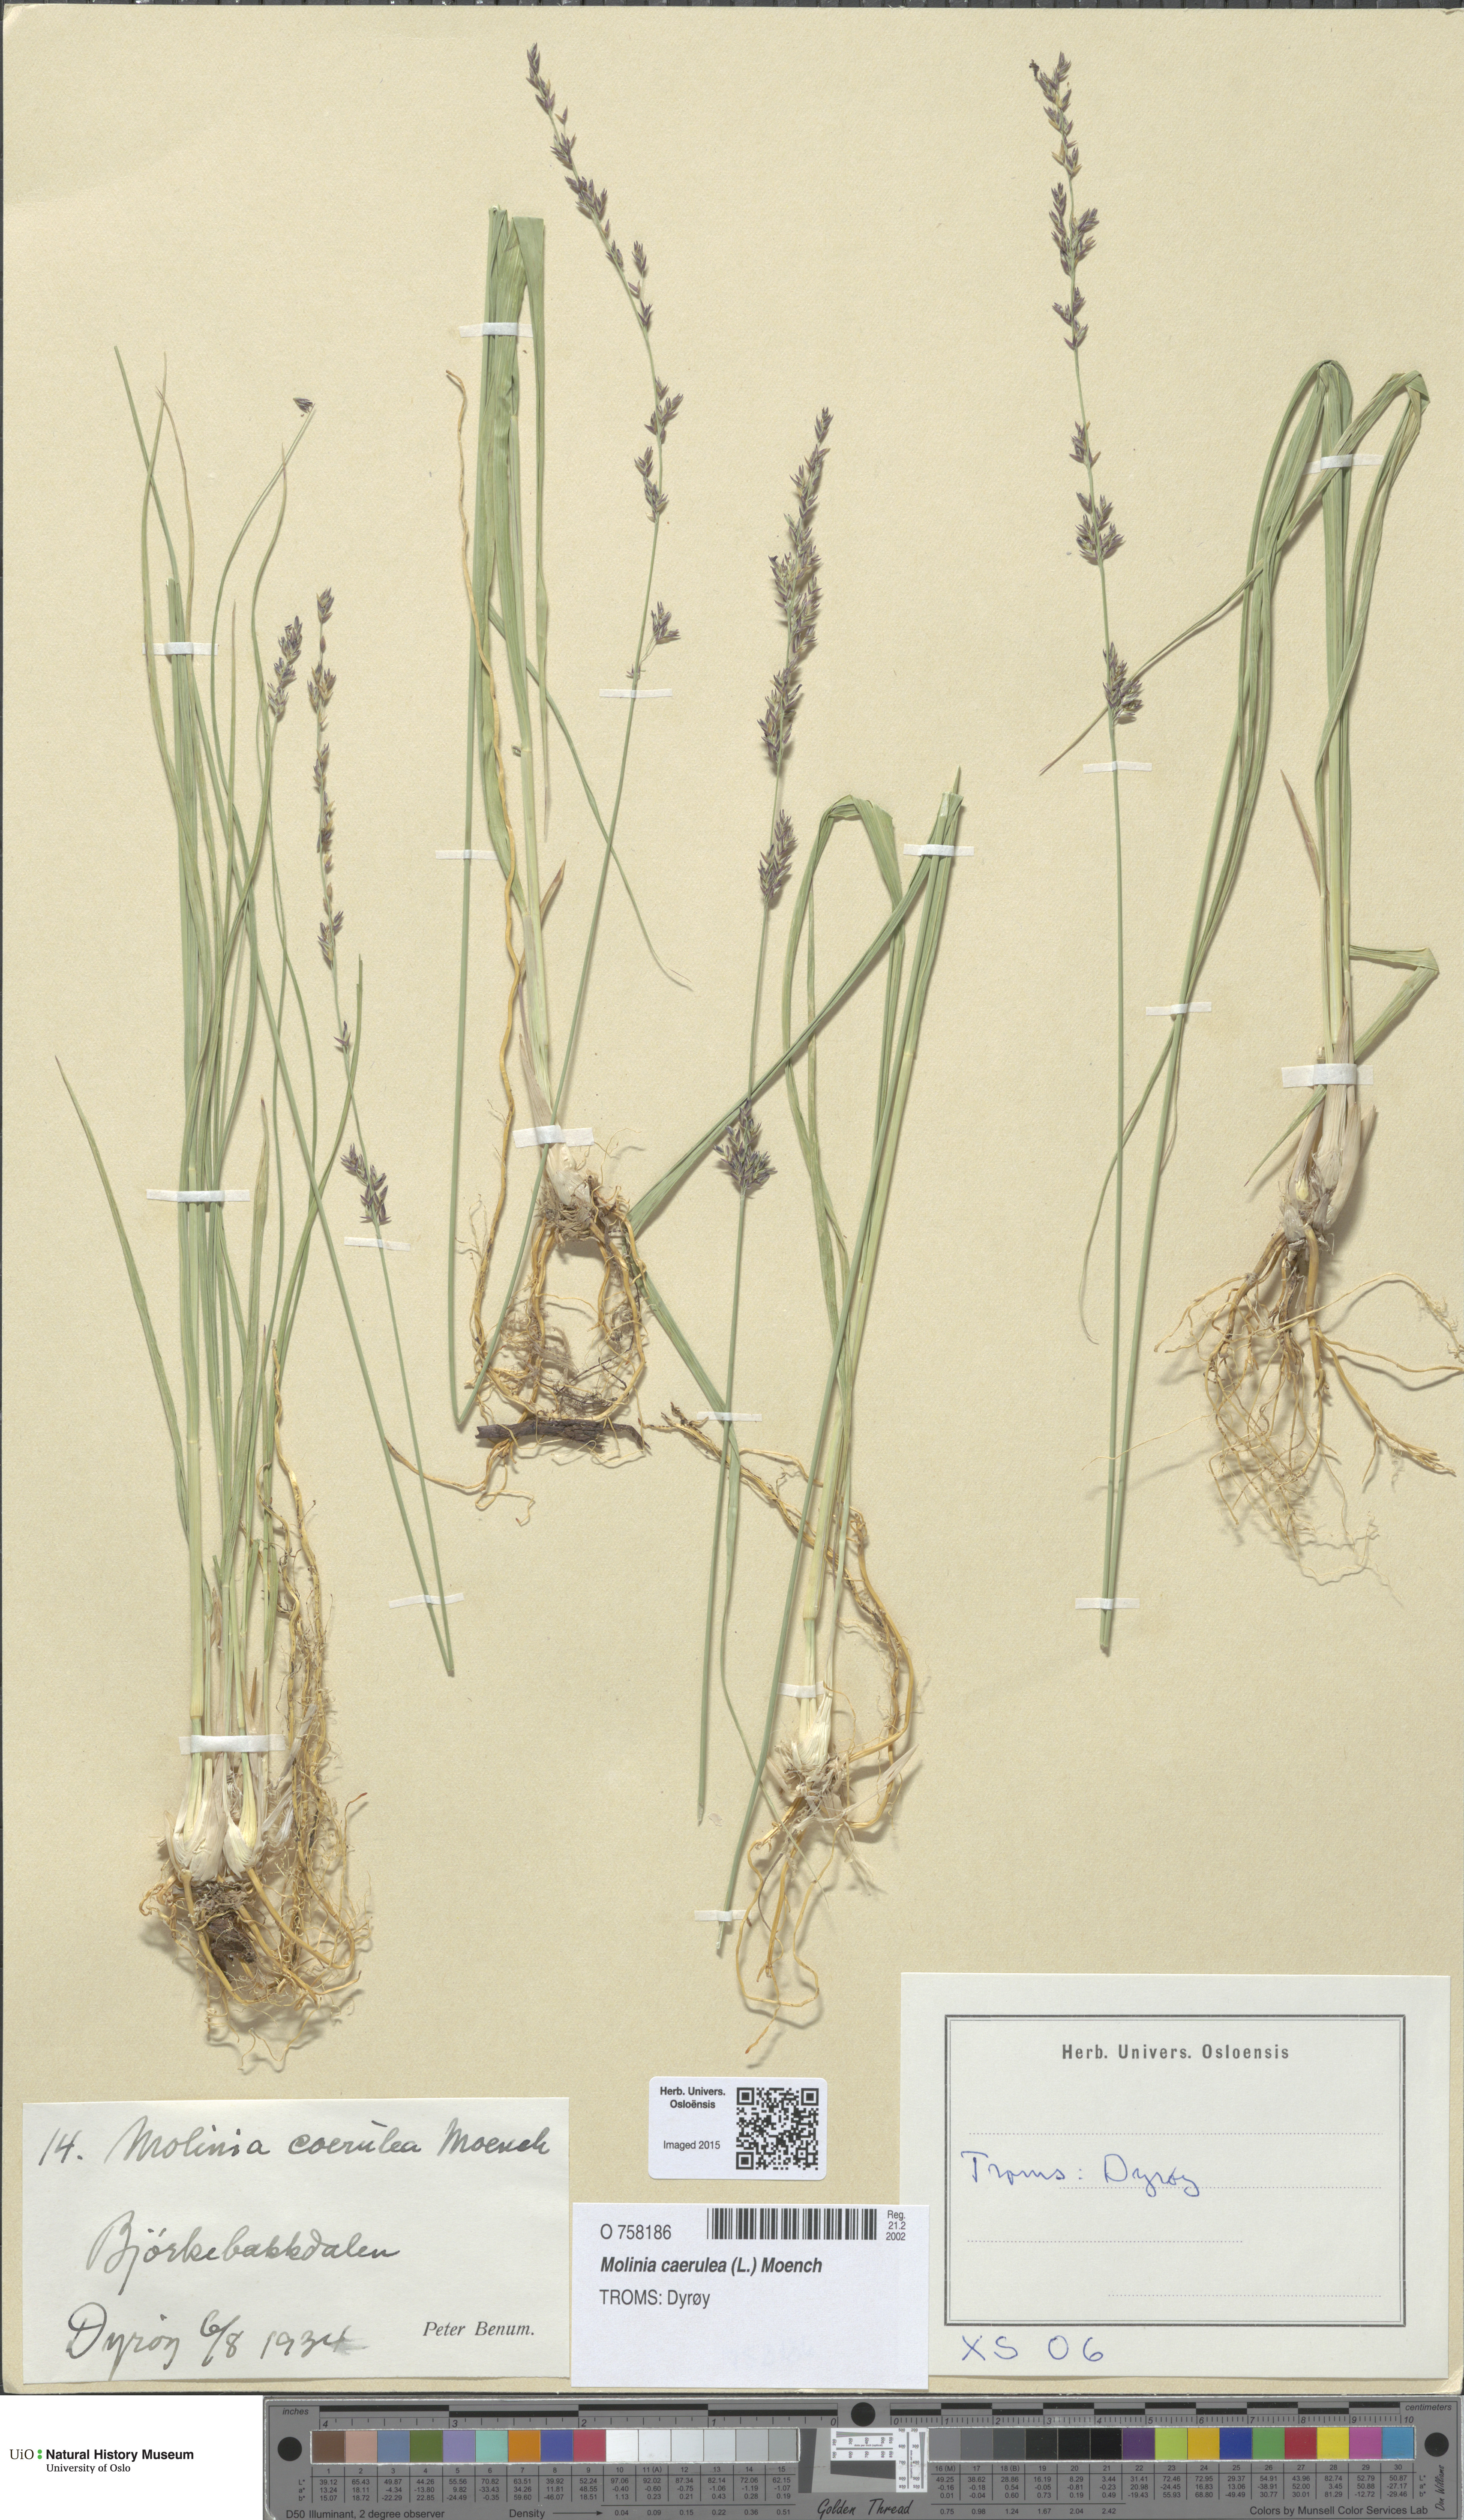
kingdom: Plantae
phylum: Tracheophyta
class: Liliopsida
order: Poales
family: Poaceae
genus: Molinia
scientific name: Molinia caerulea
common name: Purple moor-grass
